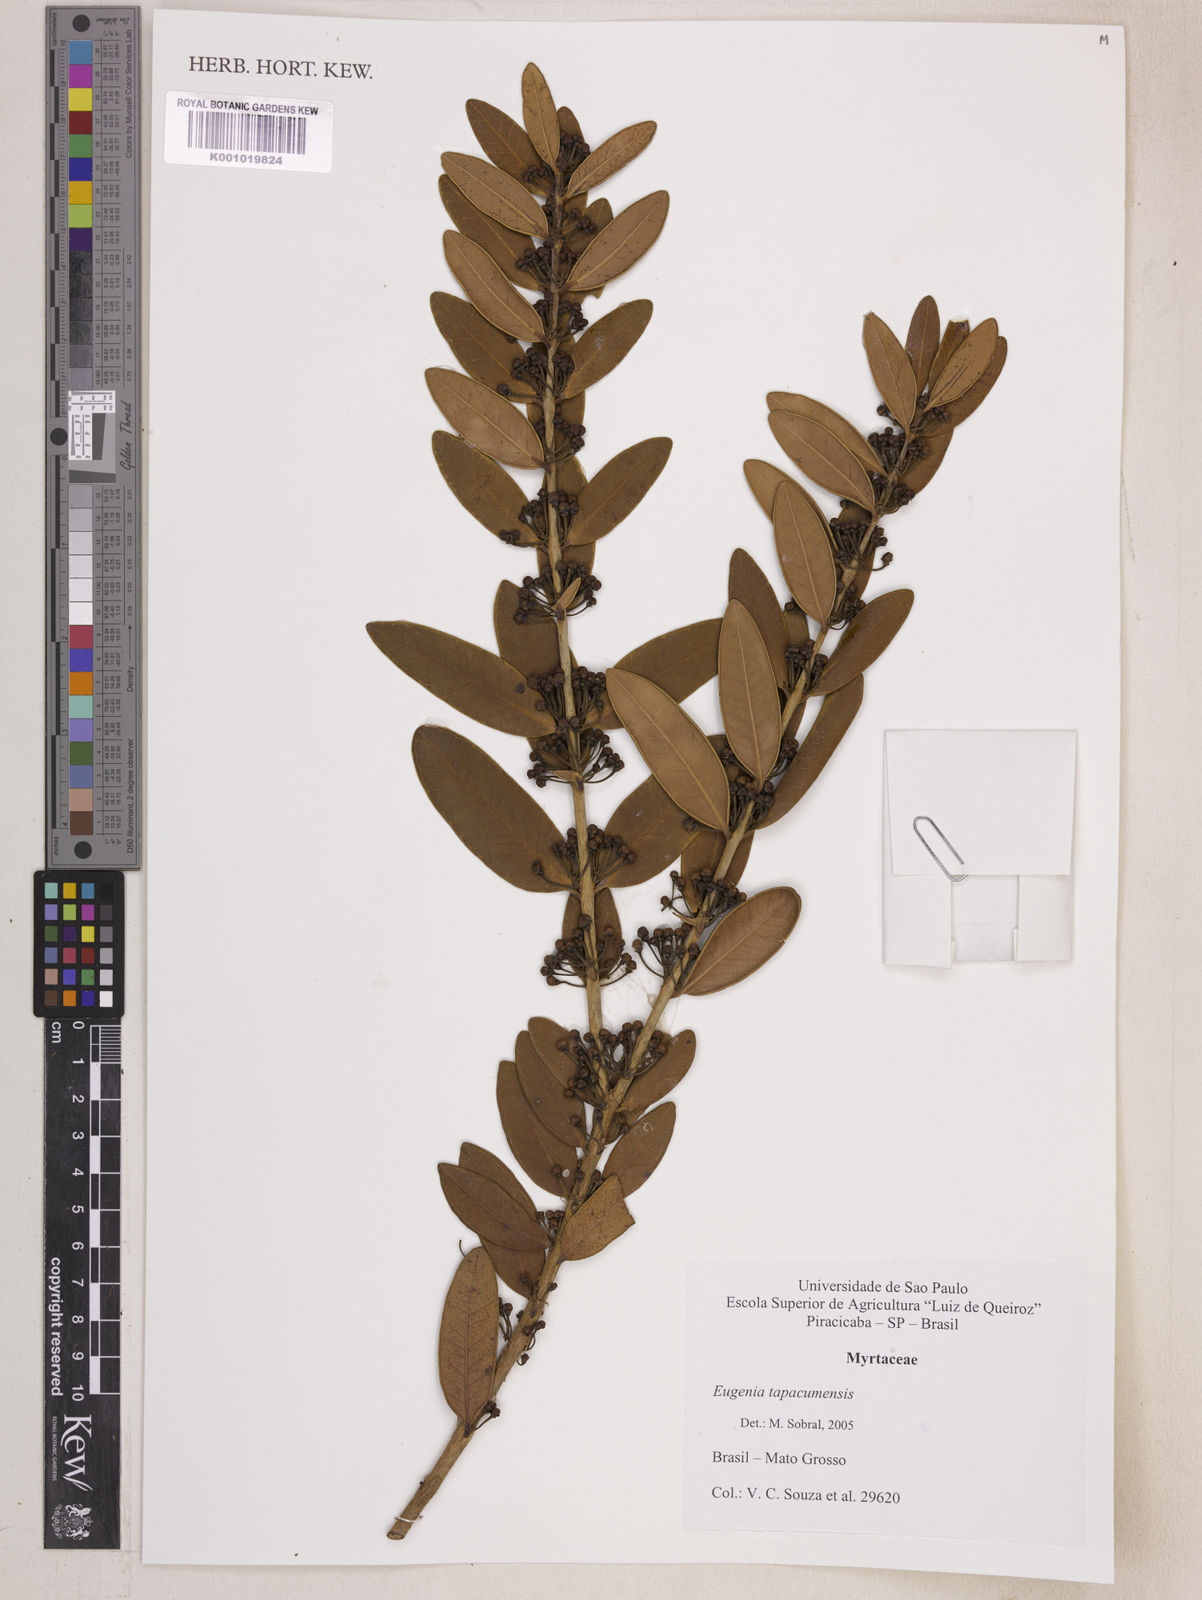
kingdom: Plantae
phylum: Tracheophyta
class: Magnoliopsida
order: Myrtales
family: Myrtaceae
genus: Eugenia
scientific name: Eugenia stictopetala
